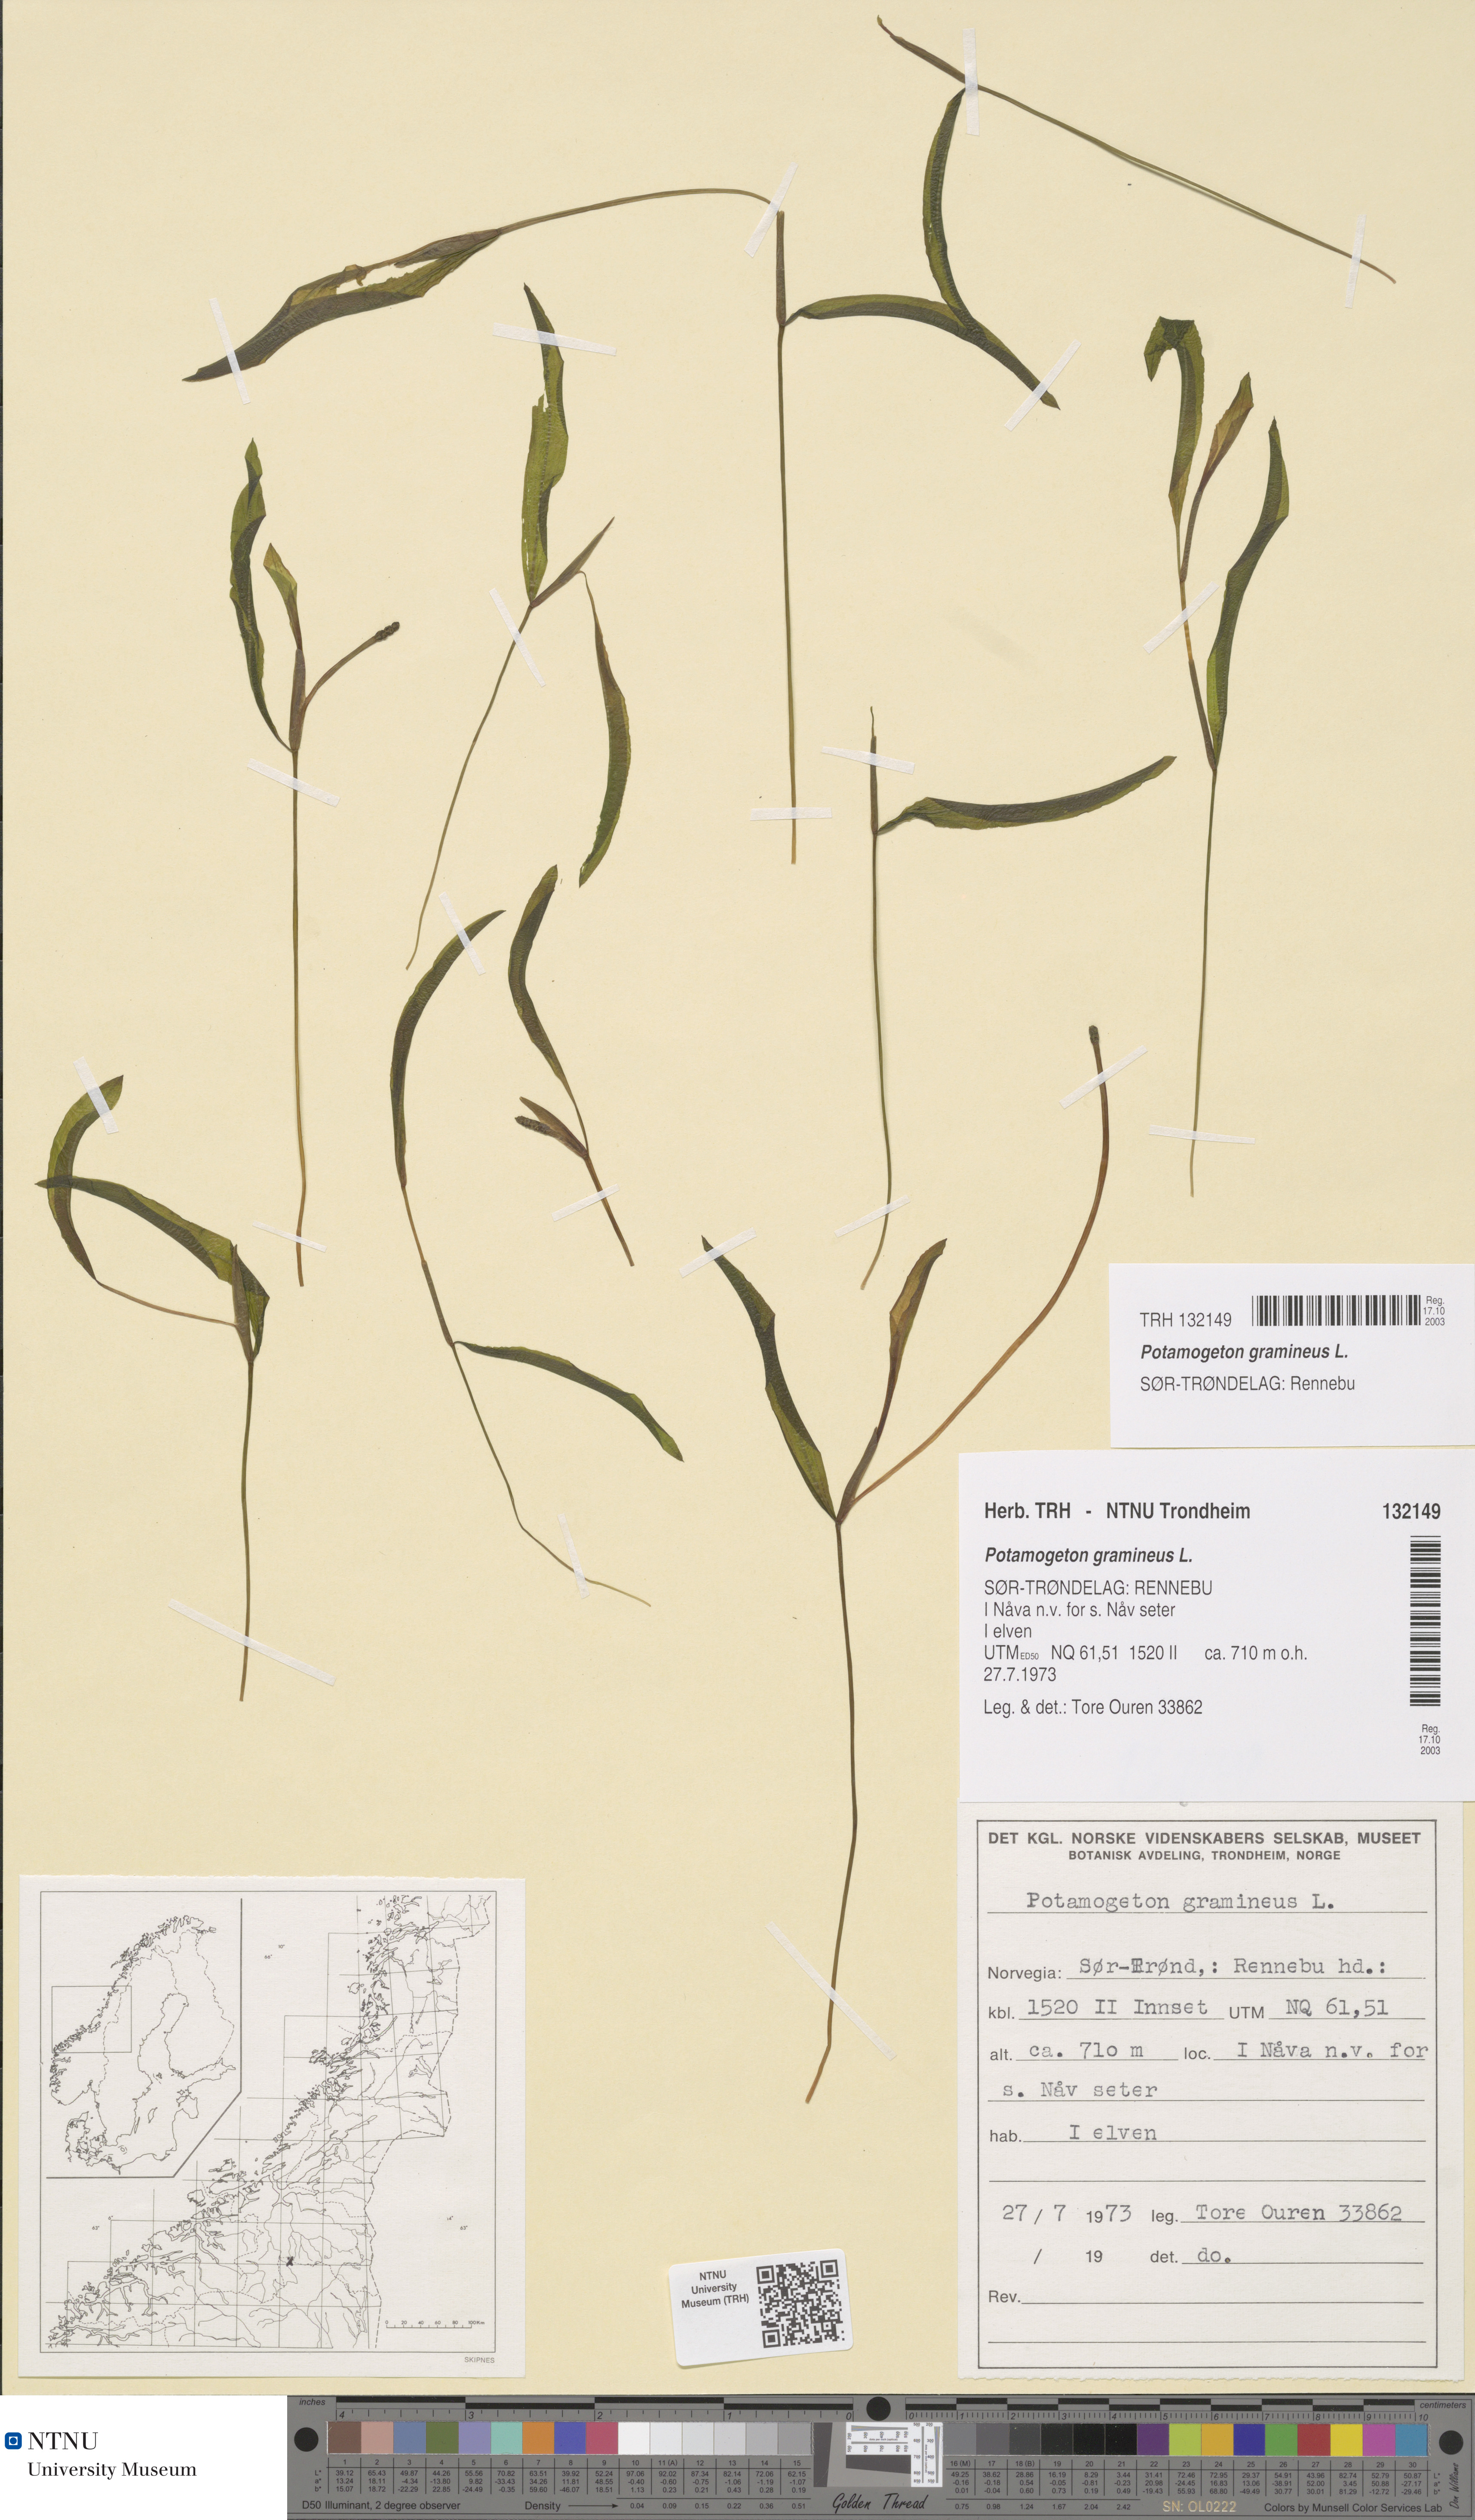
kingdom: Plantae
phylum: Tracheophyta
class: Liliopsida
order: Alismatales
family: Potamogetonaceae
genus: Potamogeton
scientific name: Potamogeton gramineus
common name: Various-leaved pondweed
